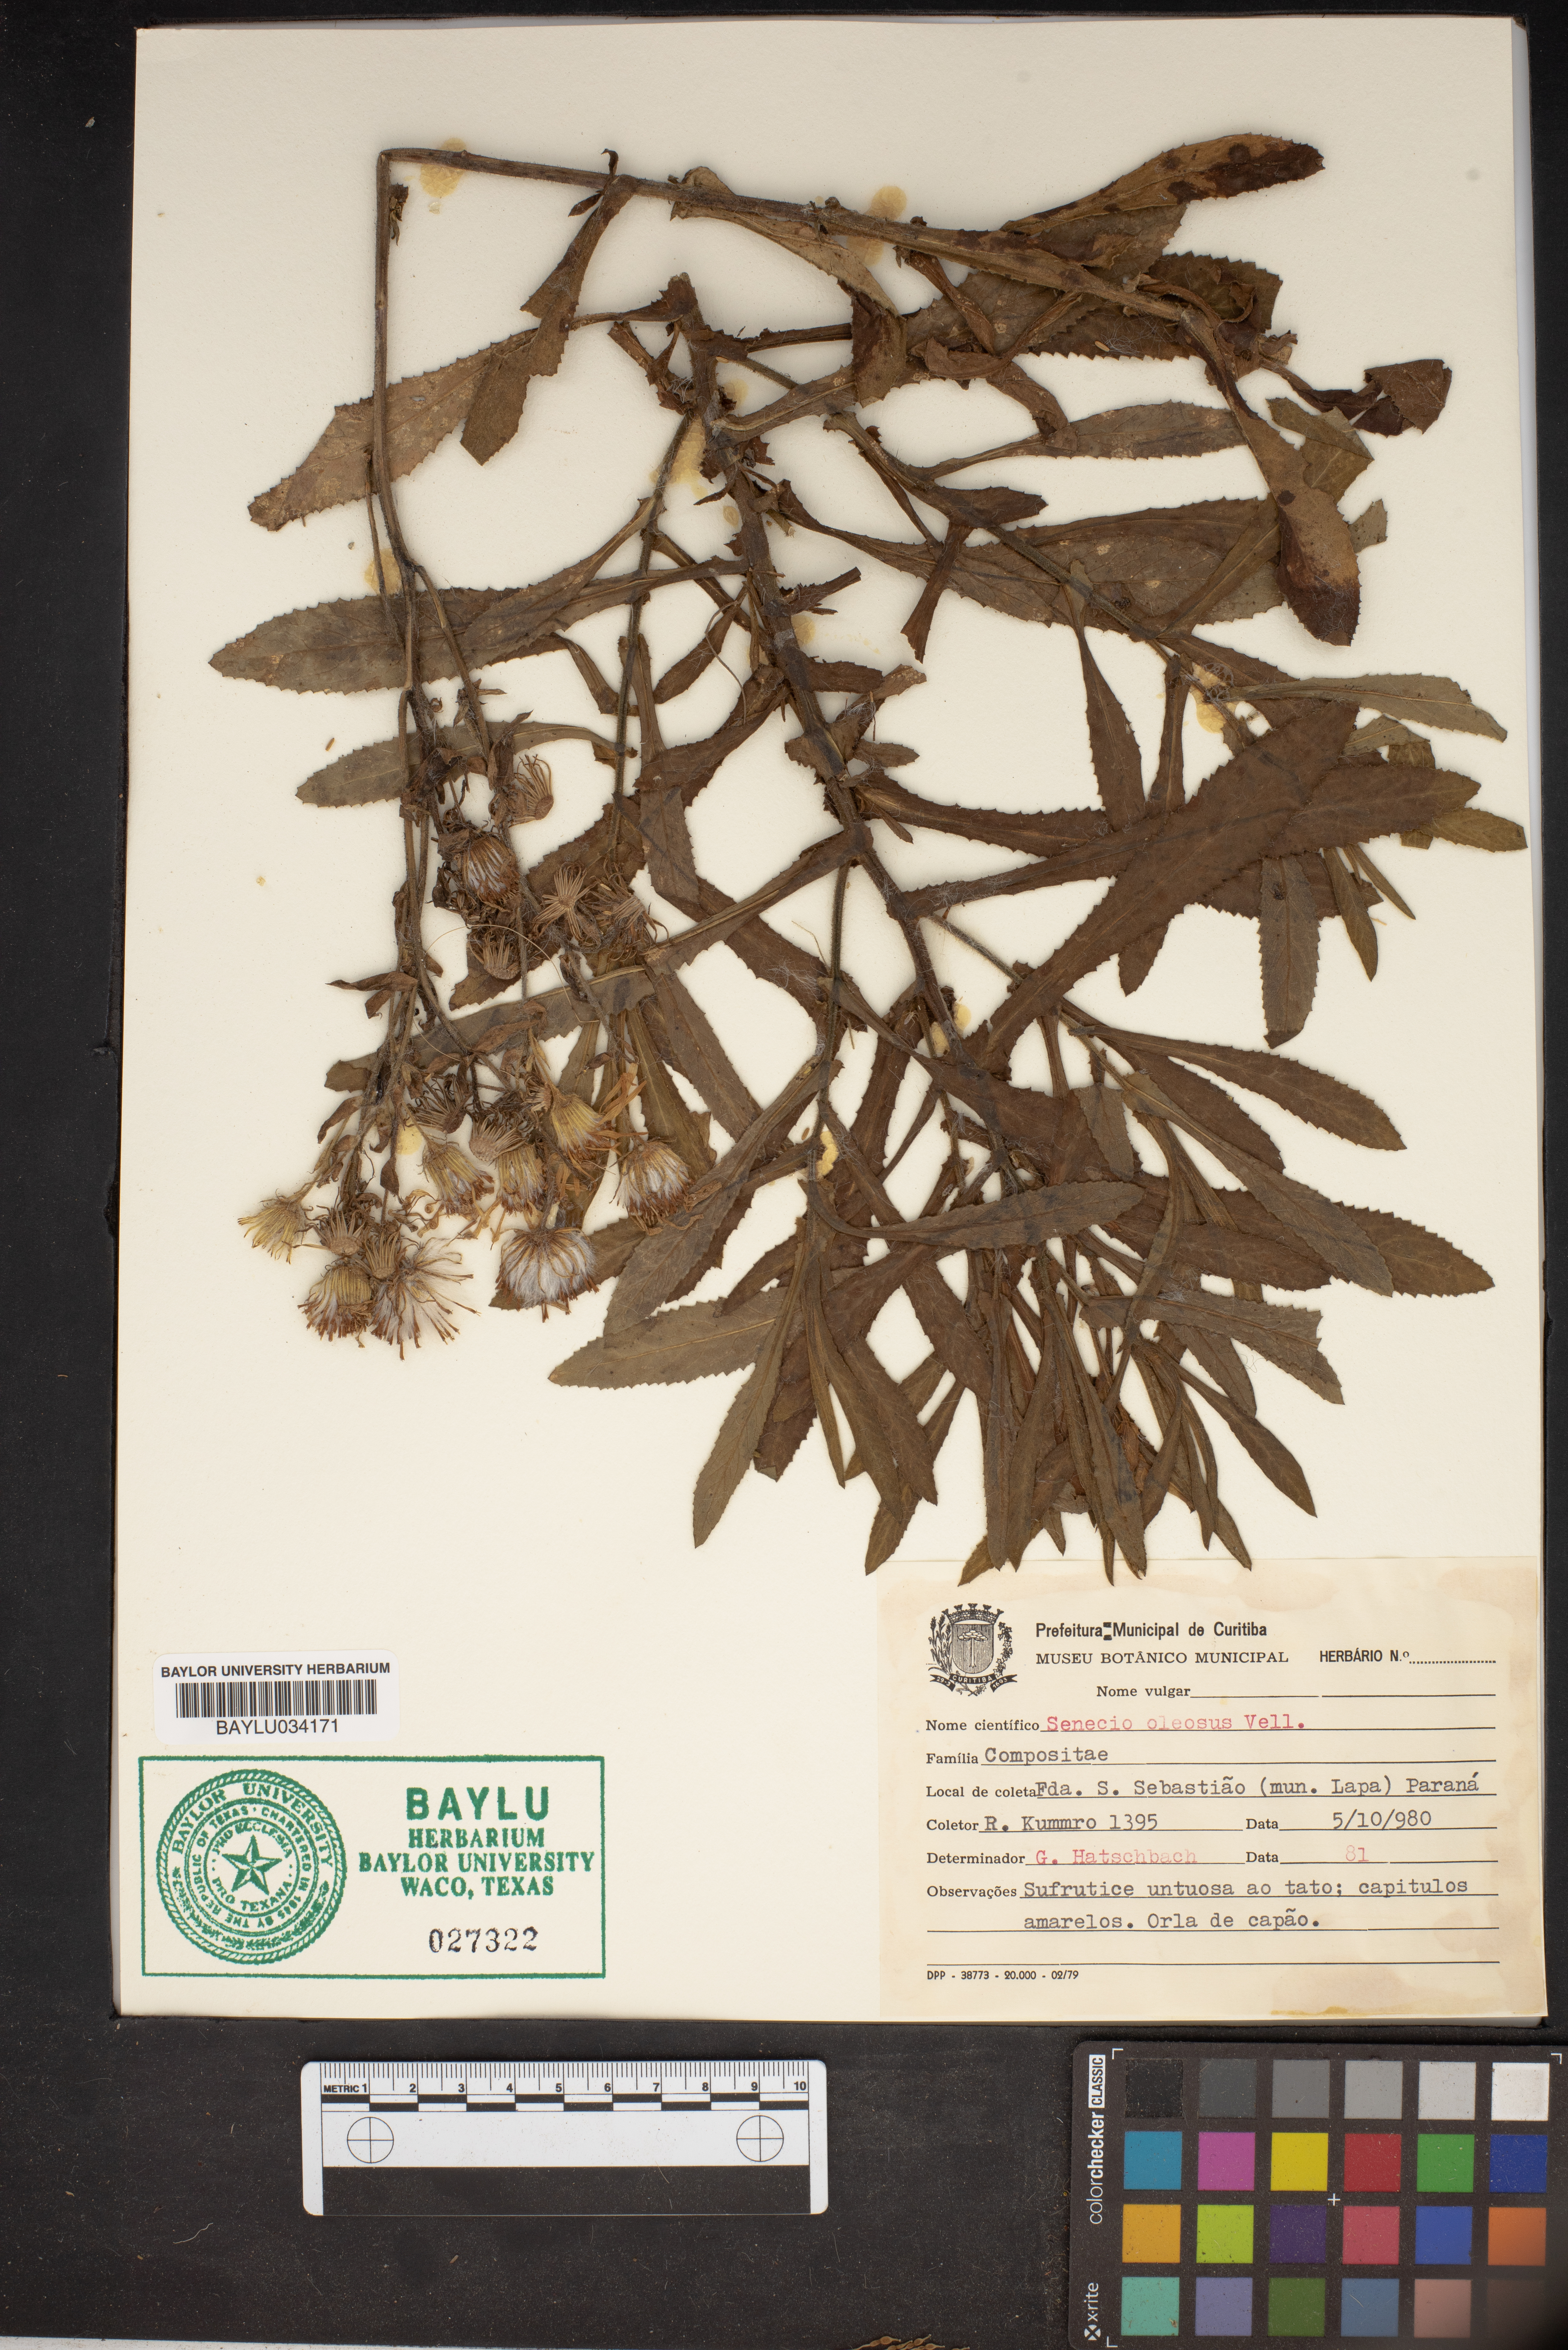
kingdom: Plantae
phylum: Tracheophyta
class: Magnoliopsida
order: Asterales
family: Asteraceae
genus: Senecio
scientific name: Senecio oleosus
